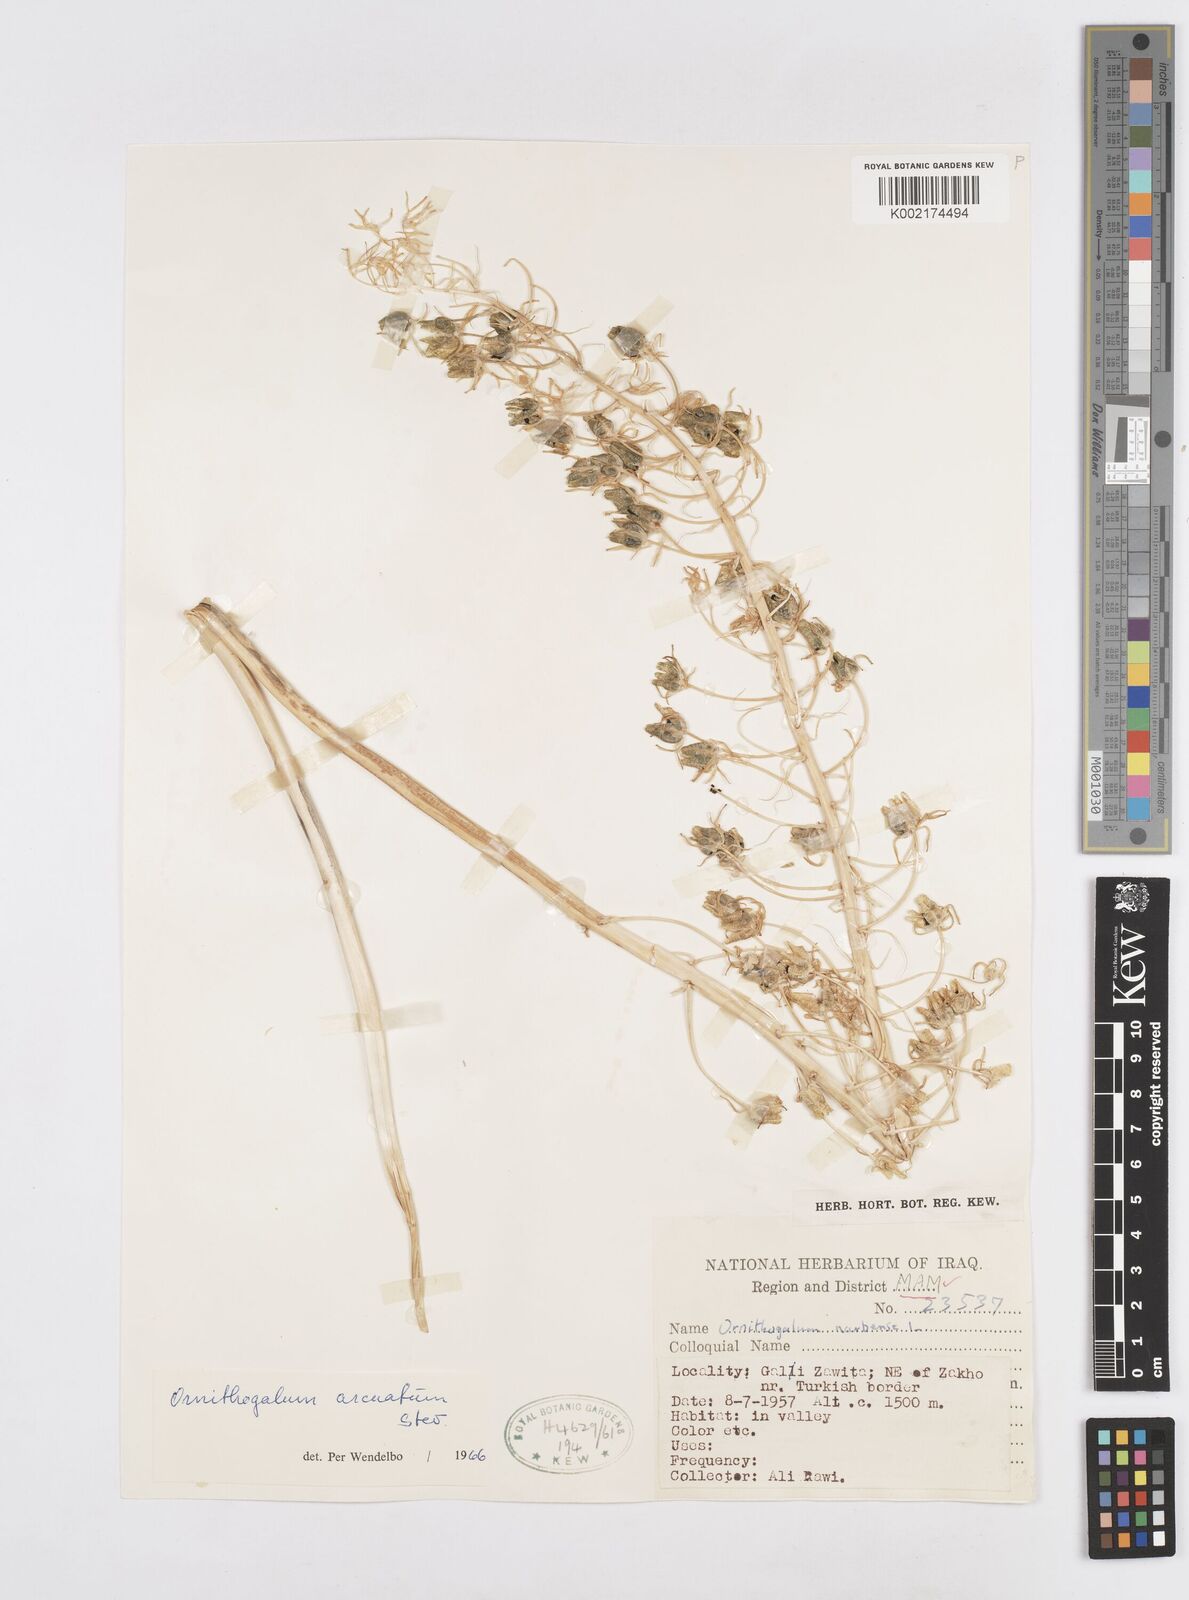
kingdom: Plantae
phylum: Tracheophyta
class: Liliopsida
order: Asparagales
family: Asparagaceae
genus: Ornithogalum
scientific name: Ornithogalum arcuatum
